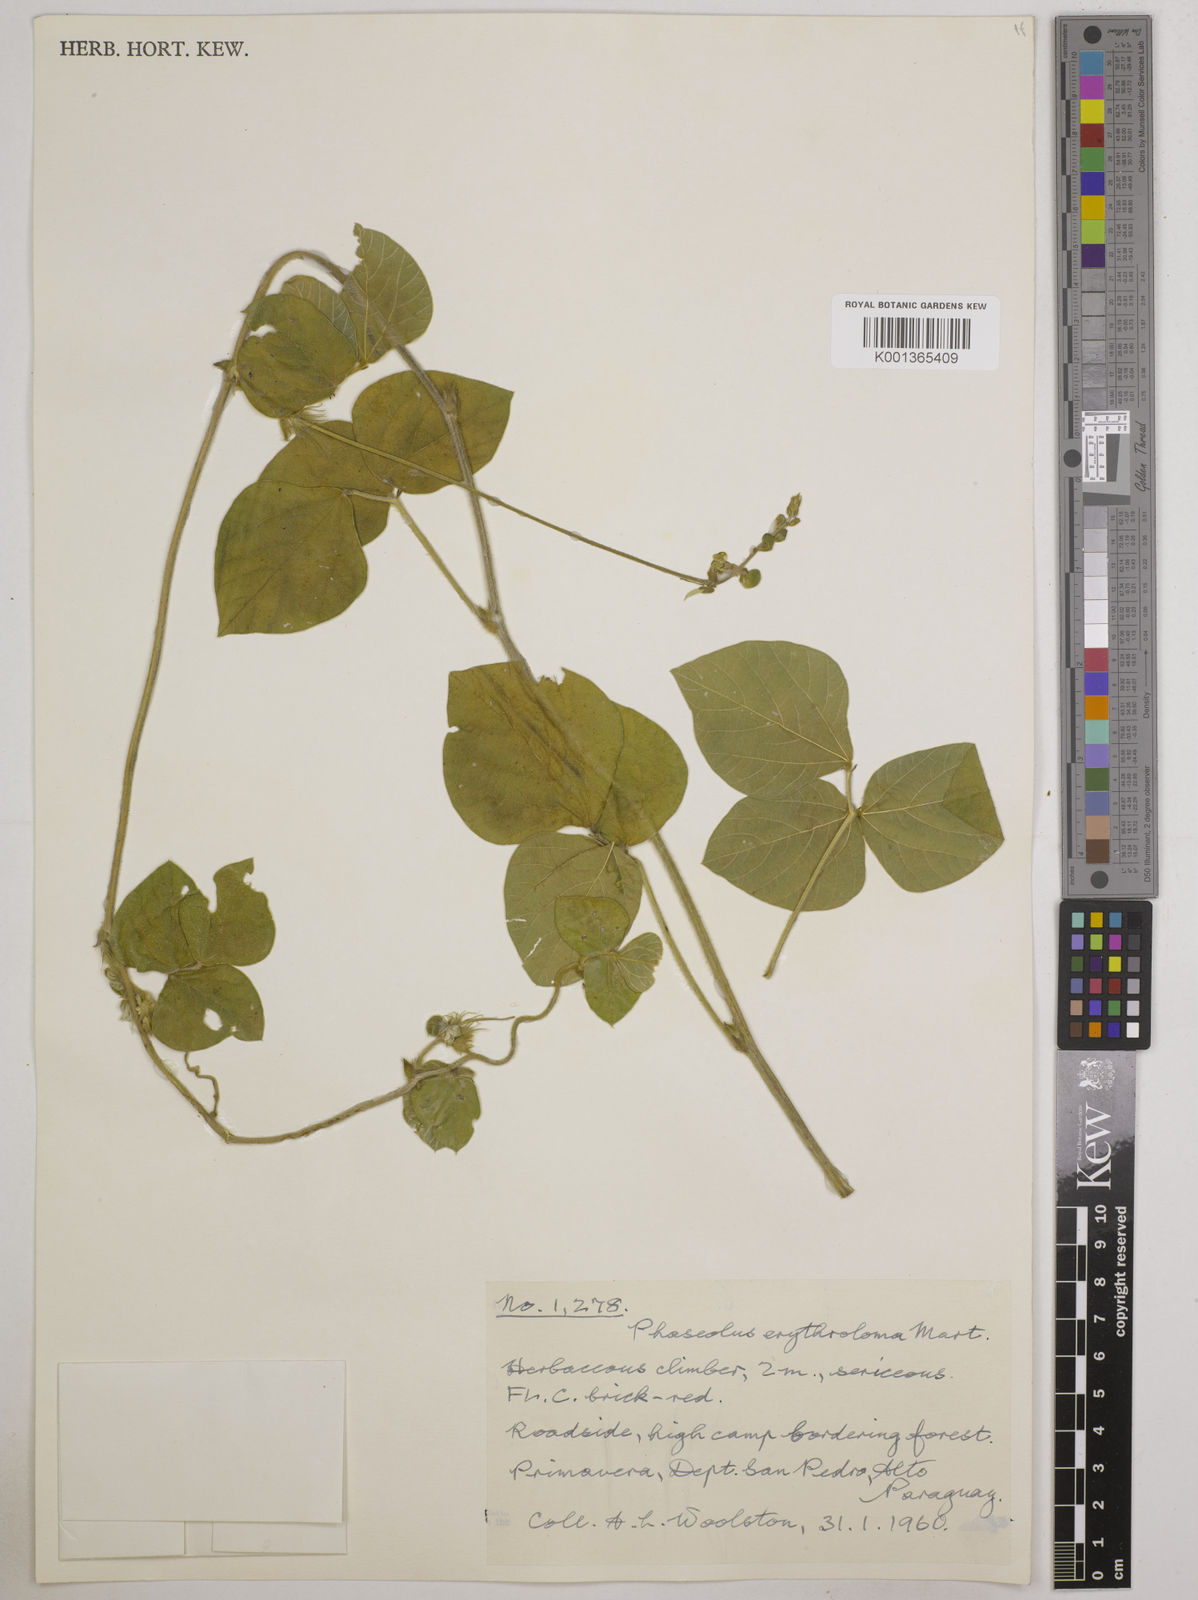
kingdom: Plantae
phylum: Tracheophyta
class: Magnoliopsida
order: Fabales
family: Fabaceae
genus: Macroptilium
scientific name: Macroptilium erythroloma
